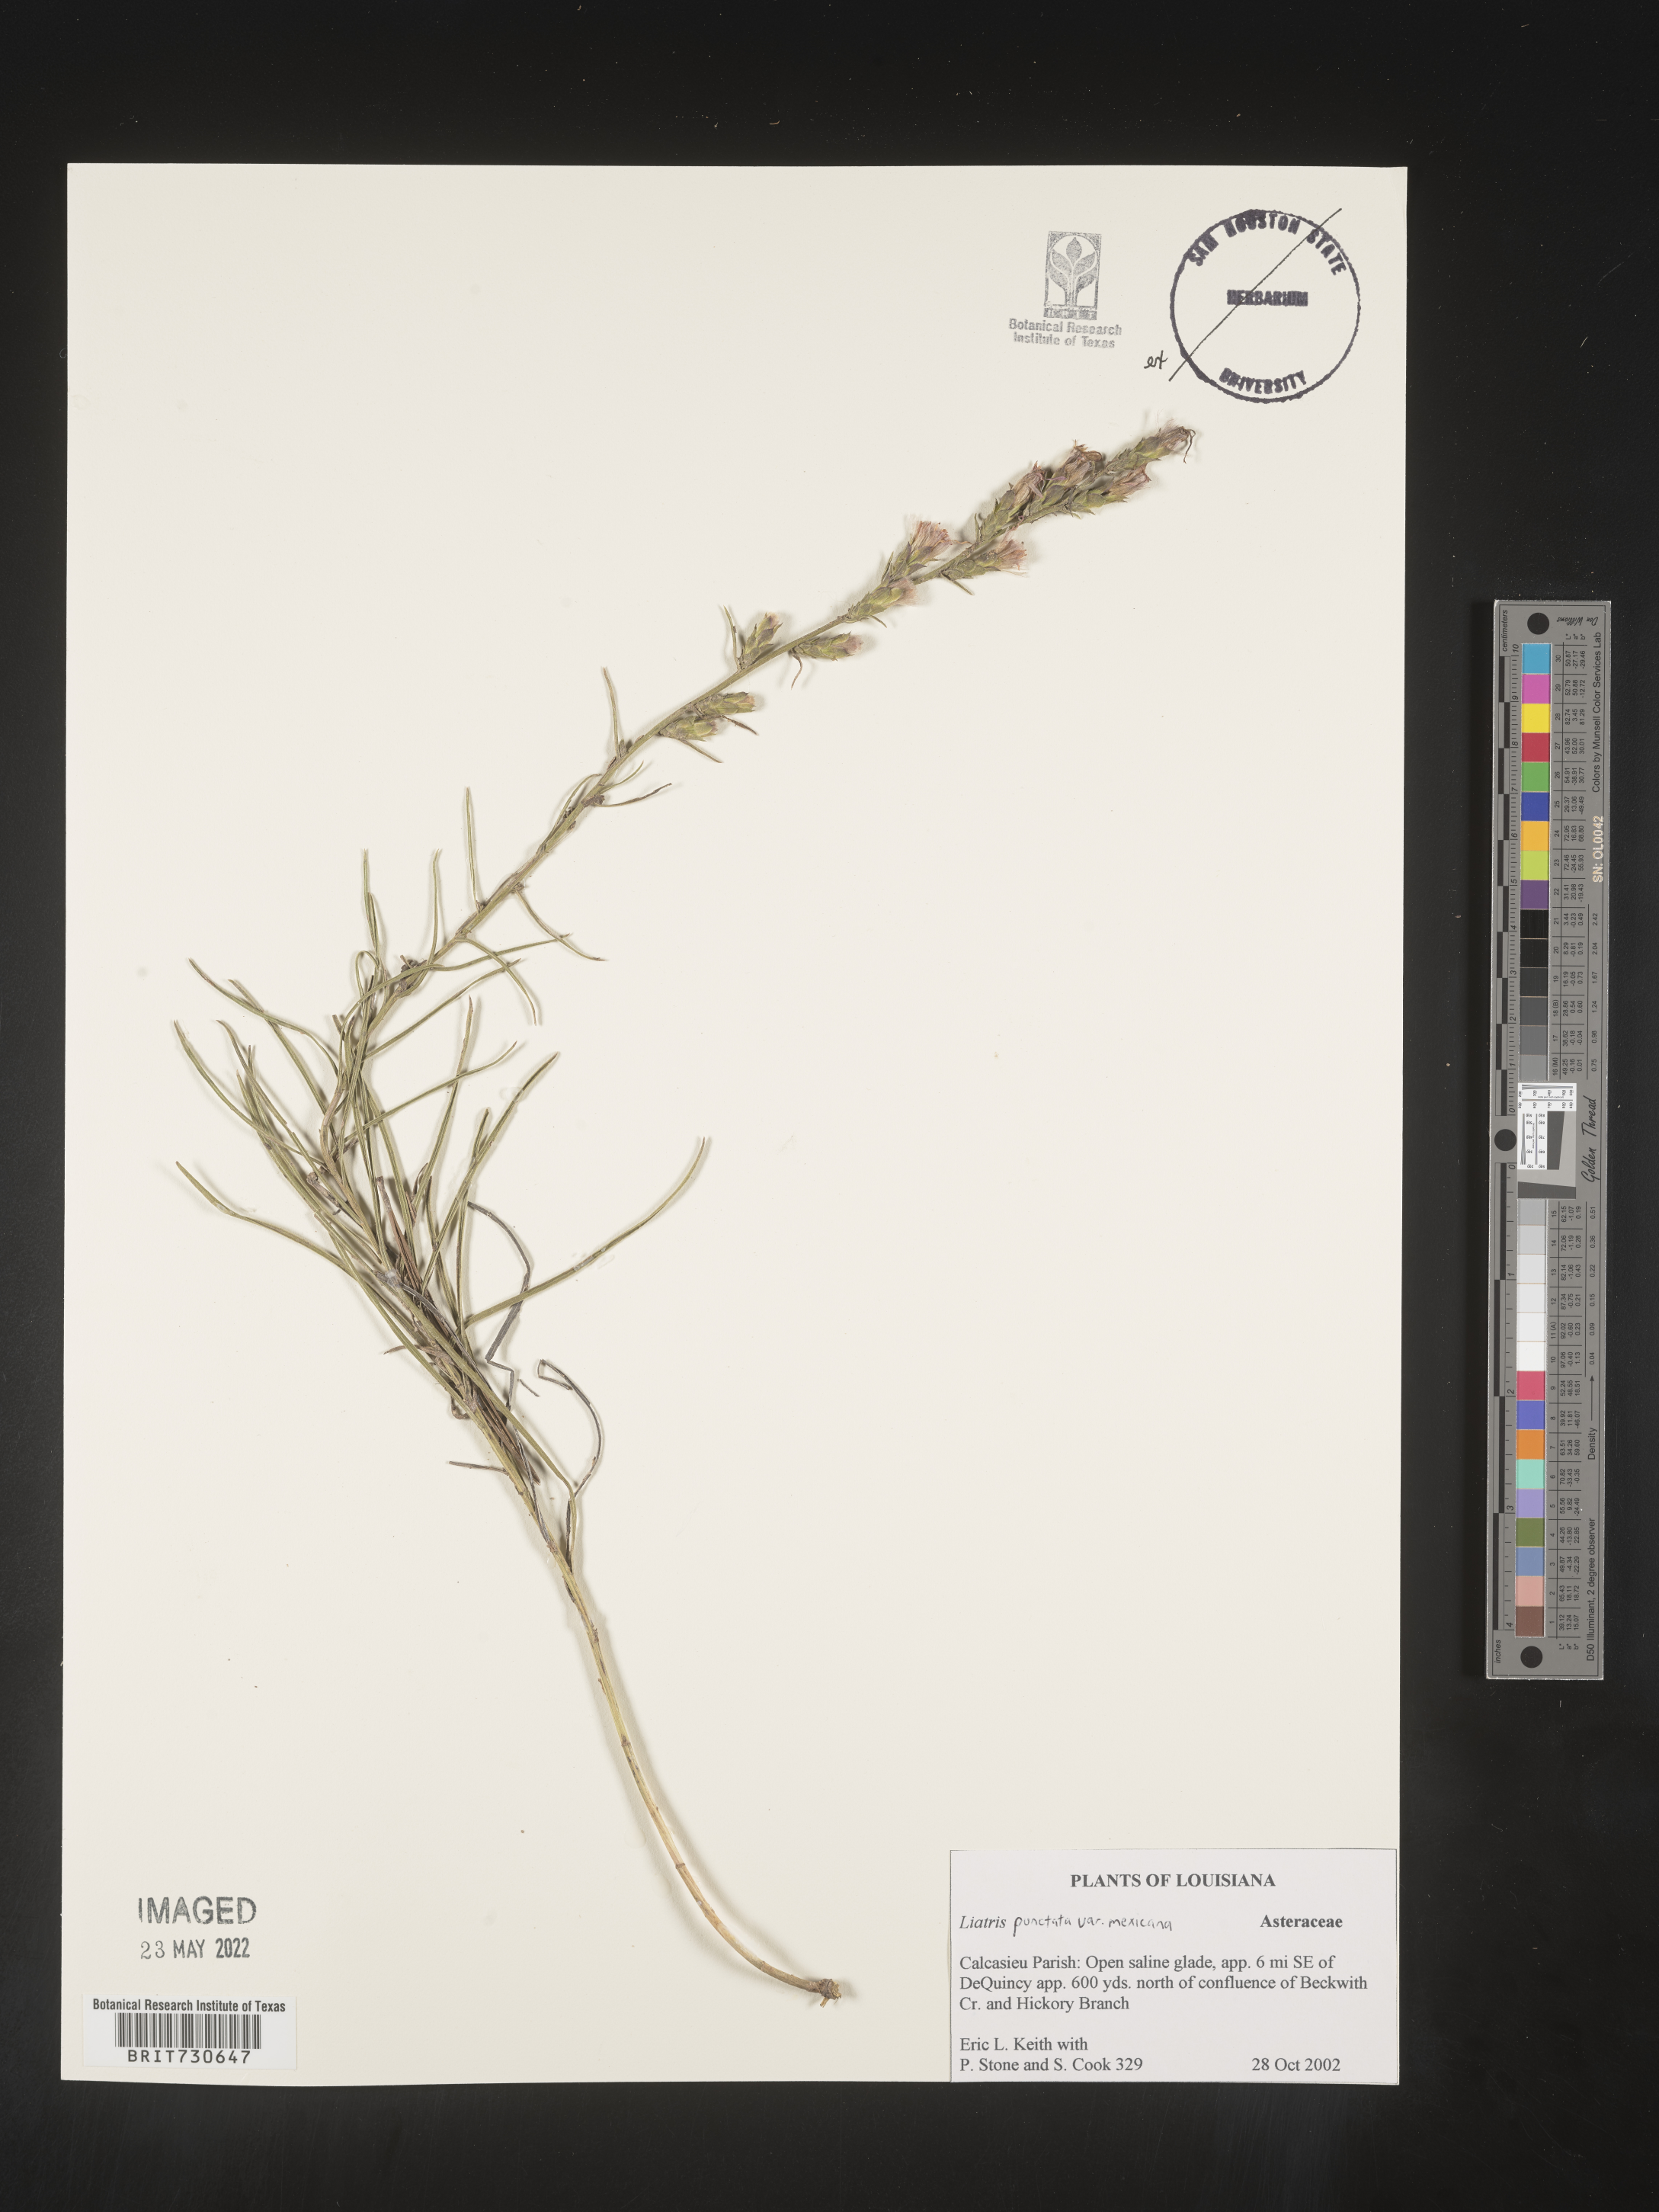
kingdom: Plantae
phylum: Tracheophyta
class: Magnoliopsida
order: Asterales
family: Asteraceae
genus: Liatris
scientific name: Liatris punctata
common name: Dotted gayfeather
